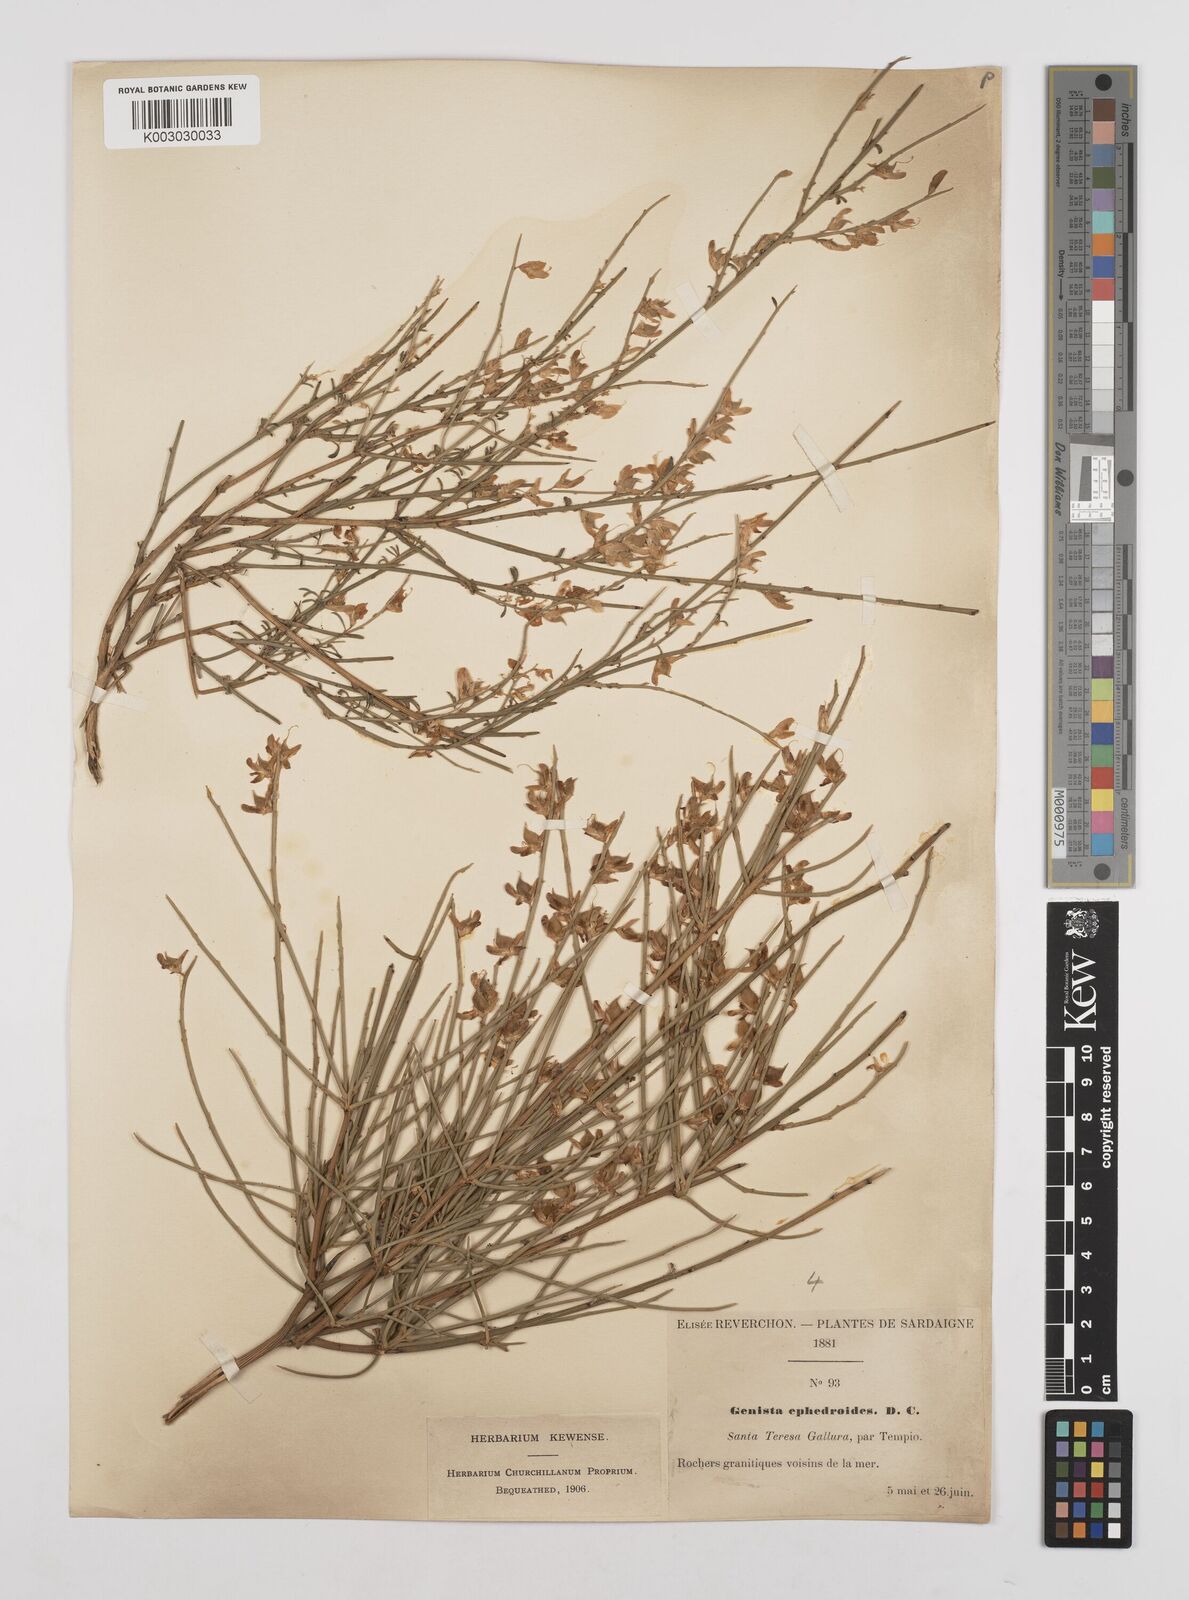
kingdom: Plantae
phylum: Tracheophyta
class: Magnoliopsida
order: Fabales
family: Fabaceae
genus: Genista
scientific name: Genista ephedroides
